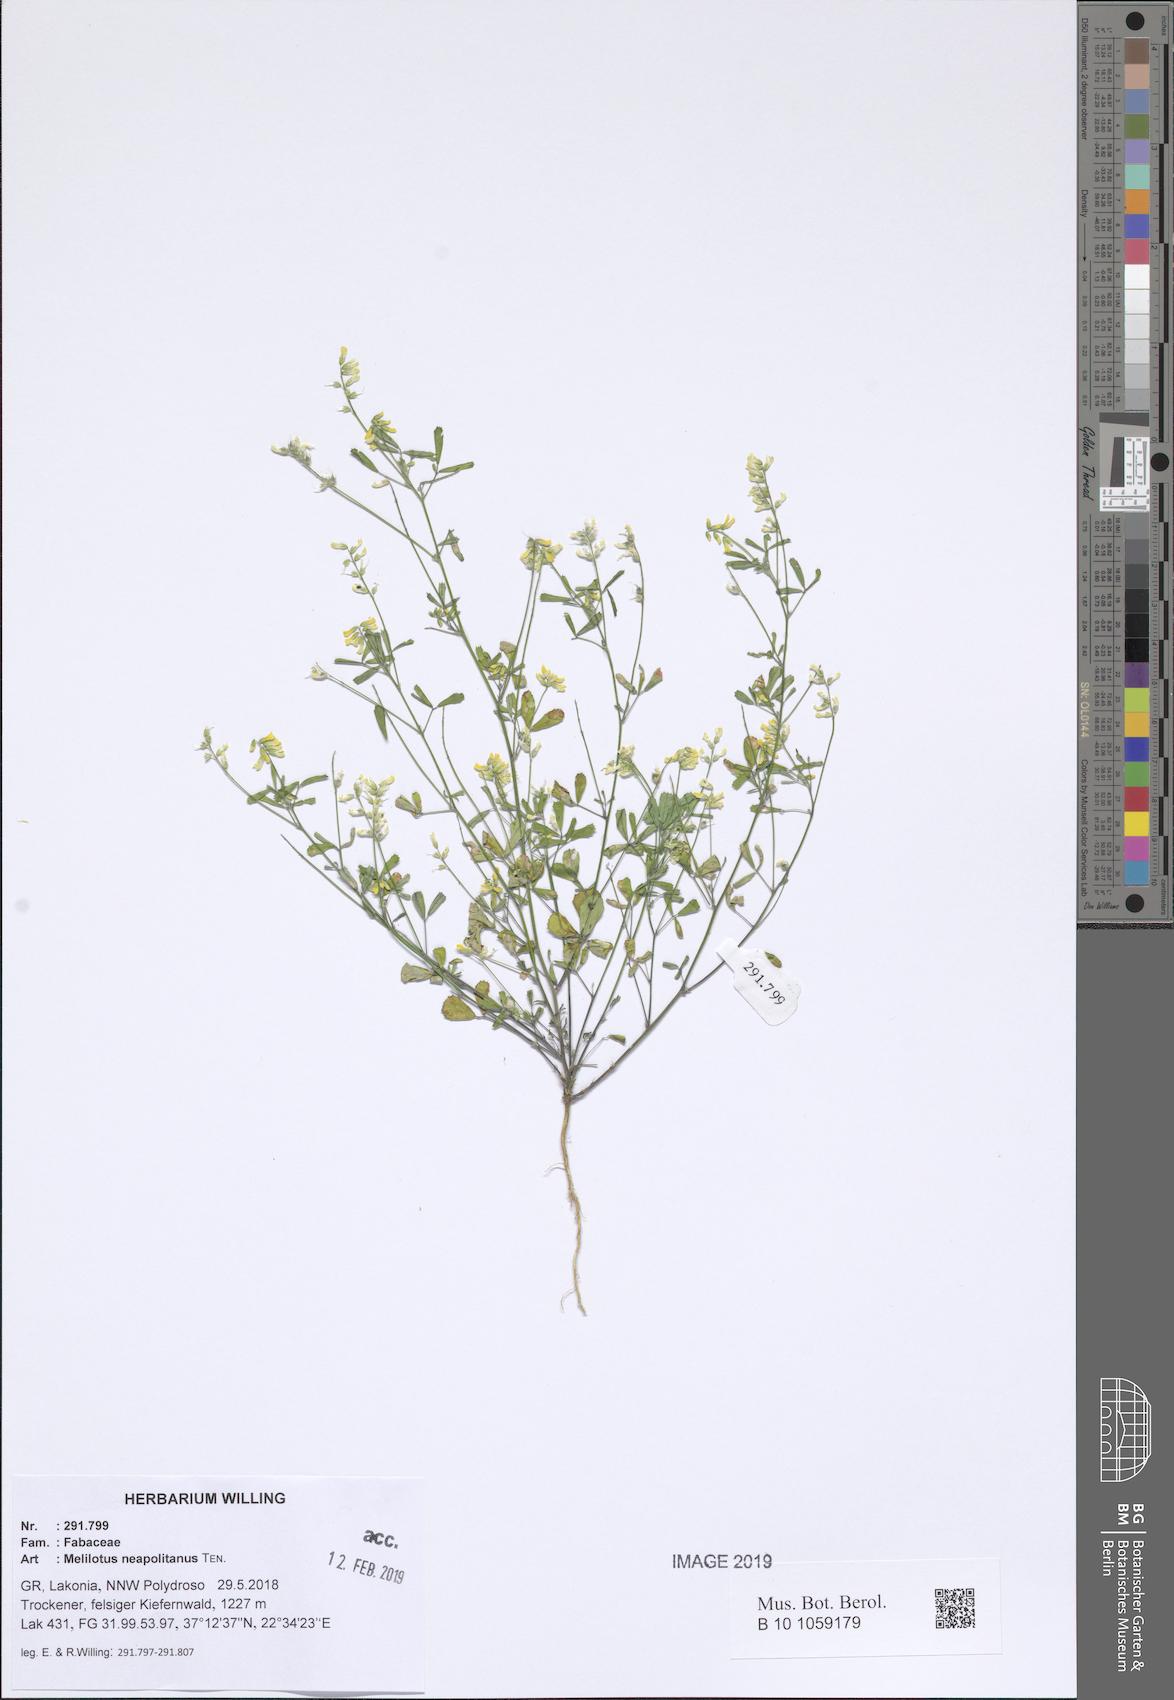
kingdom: Plantae
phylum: Tracheophyta
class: Magnoliopsida
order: Fabales
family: Fabaceae
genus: Melilotus
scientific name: Melilotus neapolitanus
